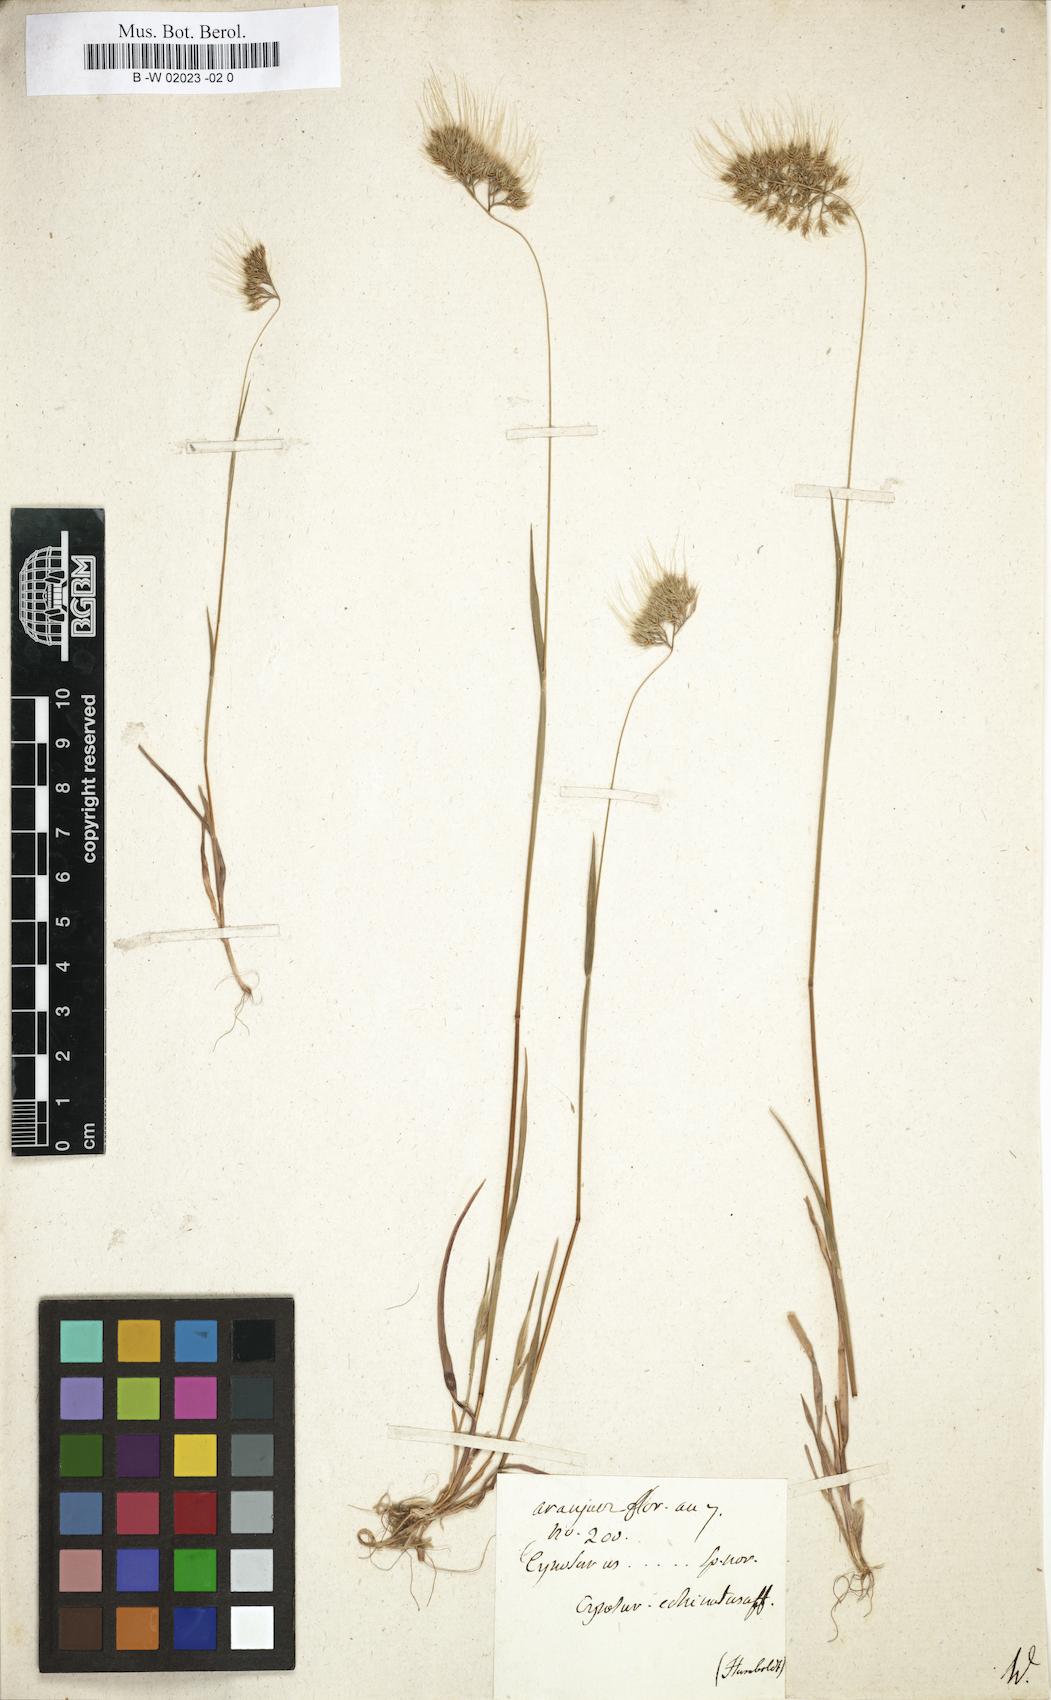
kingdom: Plantae
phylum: Tracheophyta
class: Liliopsida
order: Poales
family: Poaceae
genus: Cynosurus
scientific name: Cynosurus
